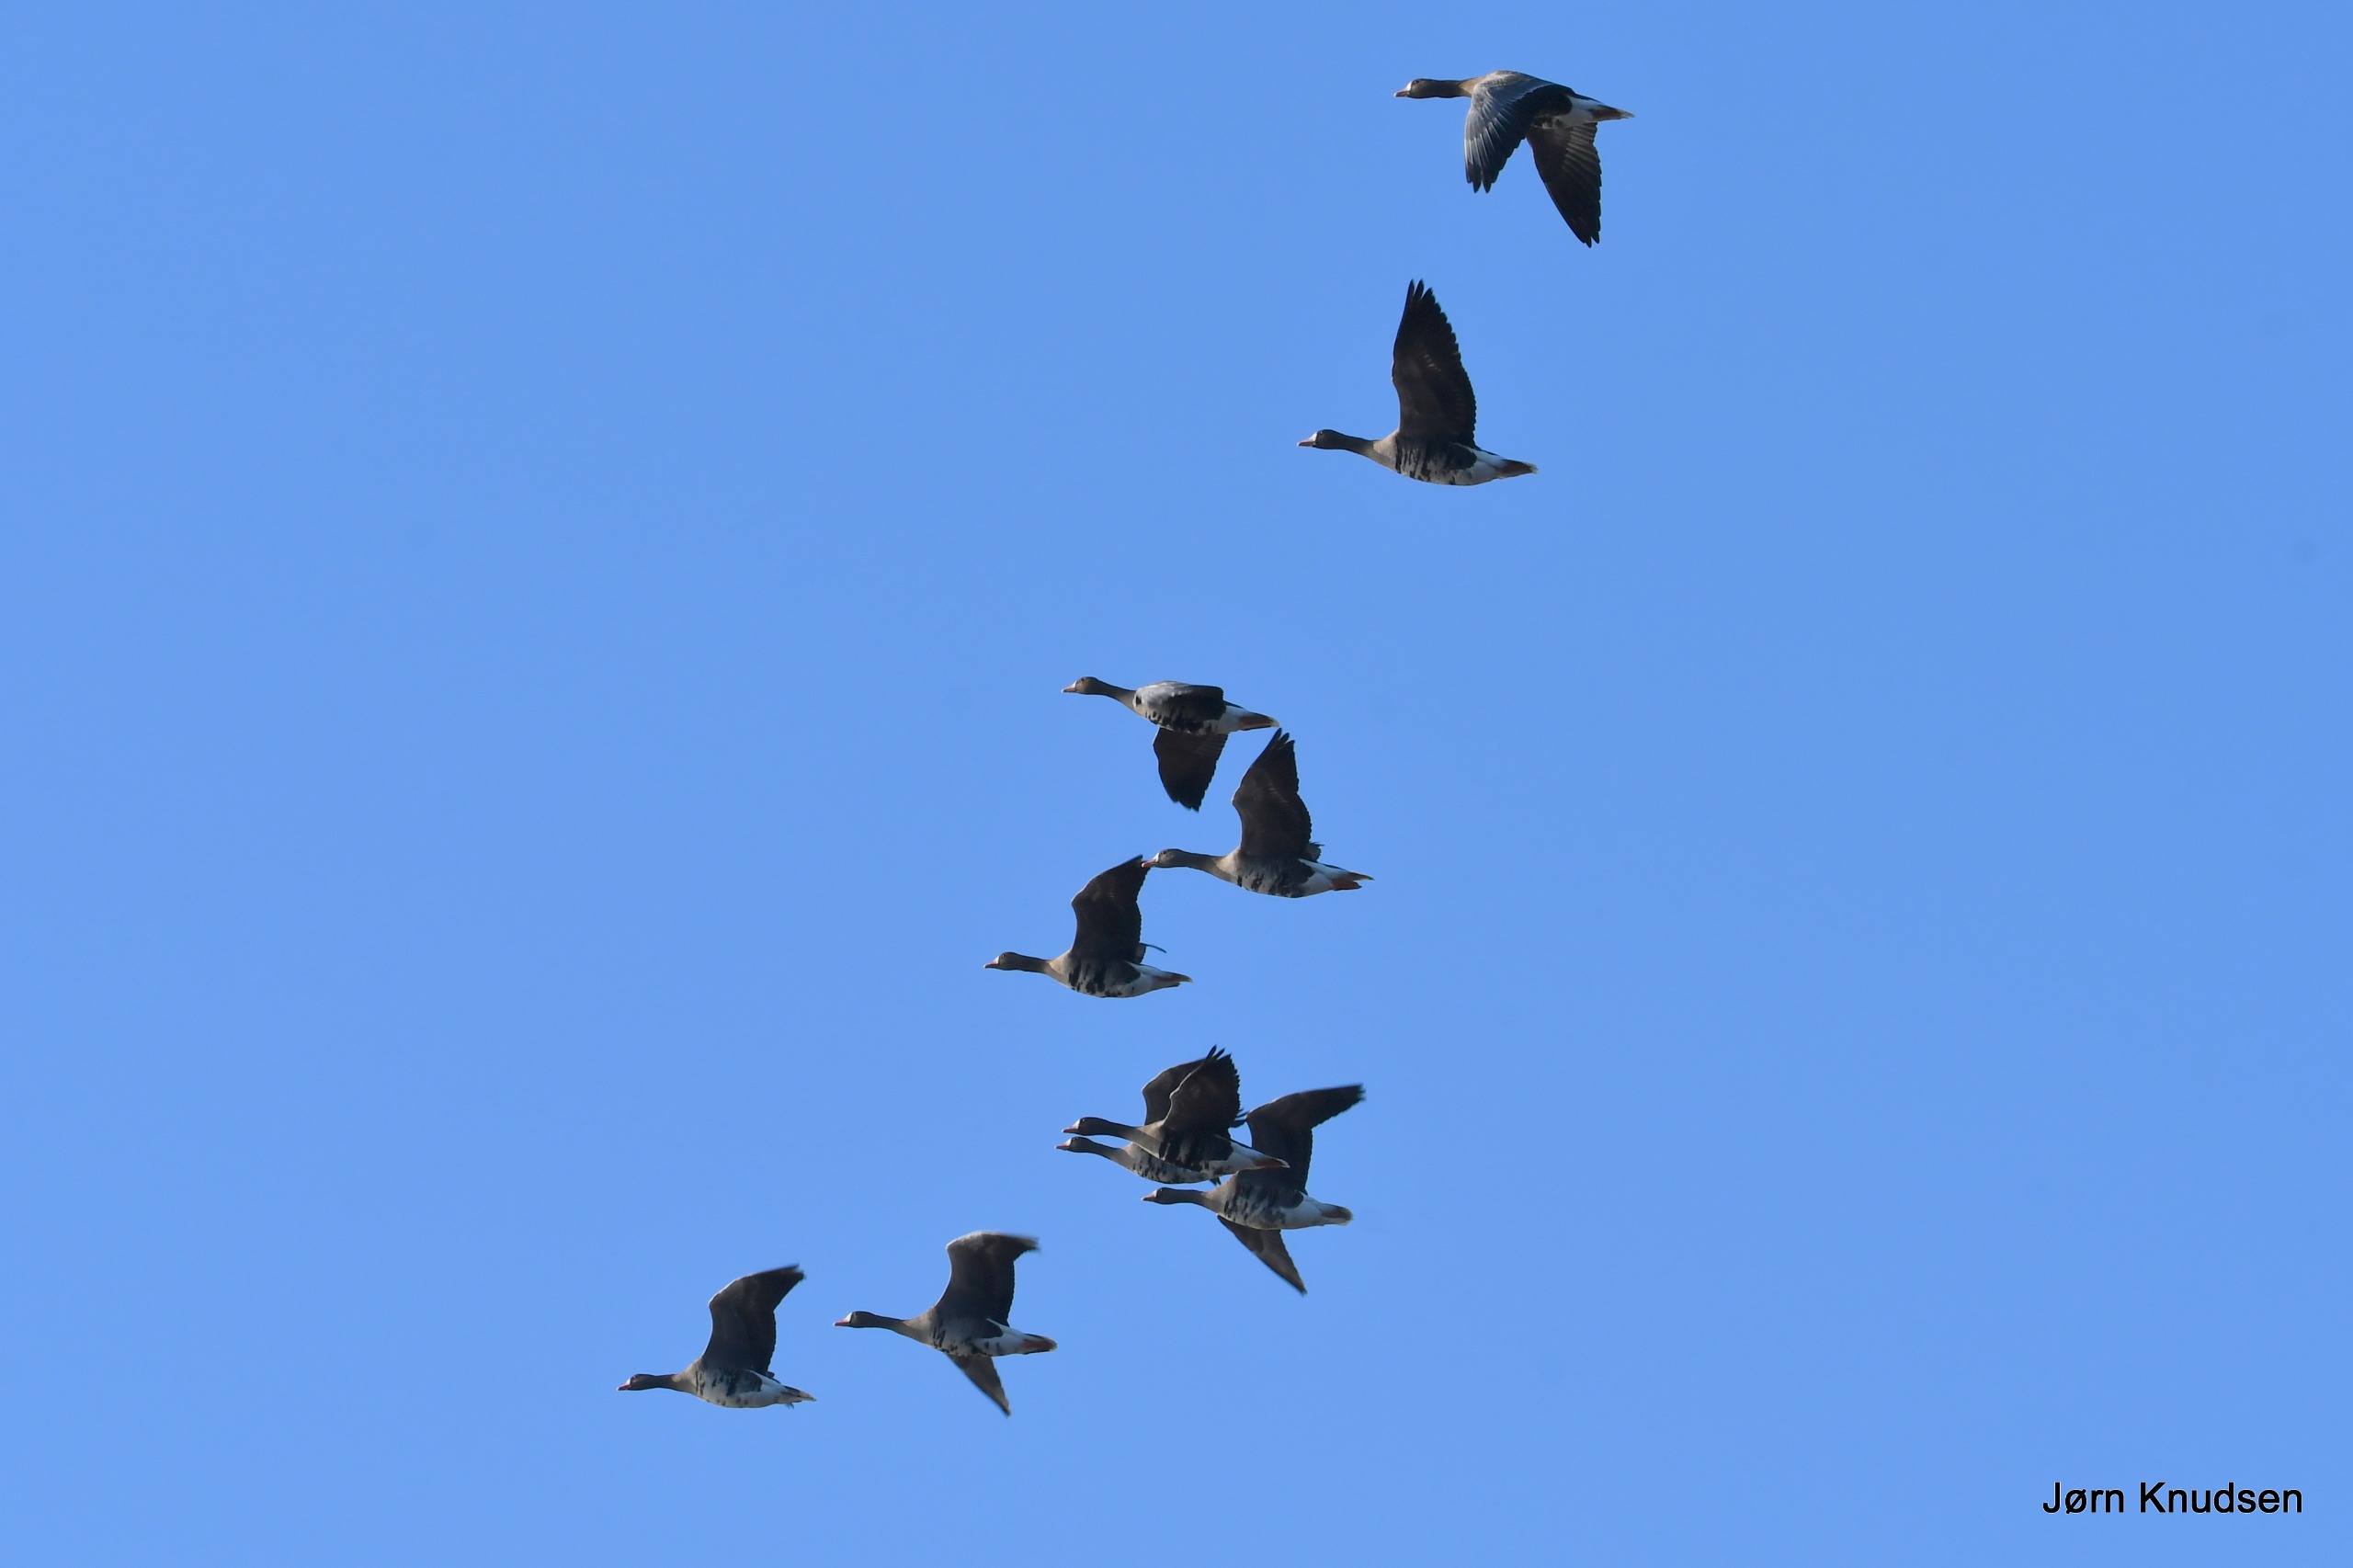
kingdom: Animalia
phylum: Chordata
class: Aves
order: Anseriformes
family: Anatidae
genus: Anser
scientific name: Anser albifrons
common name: Blisgås
